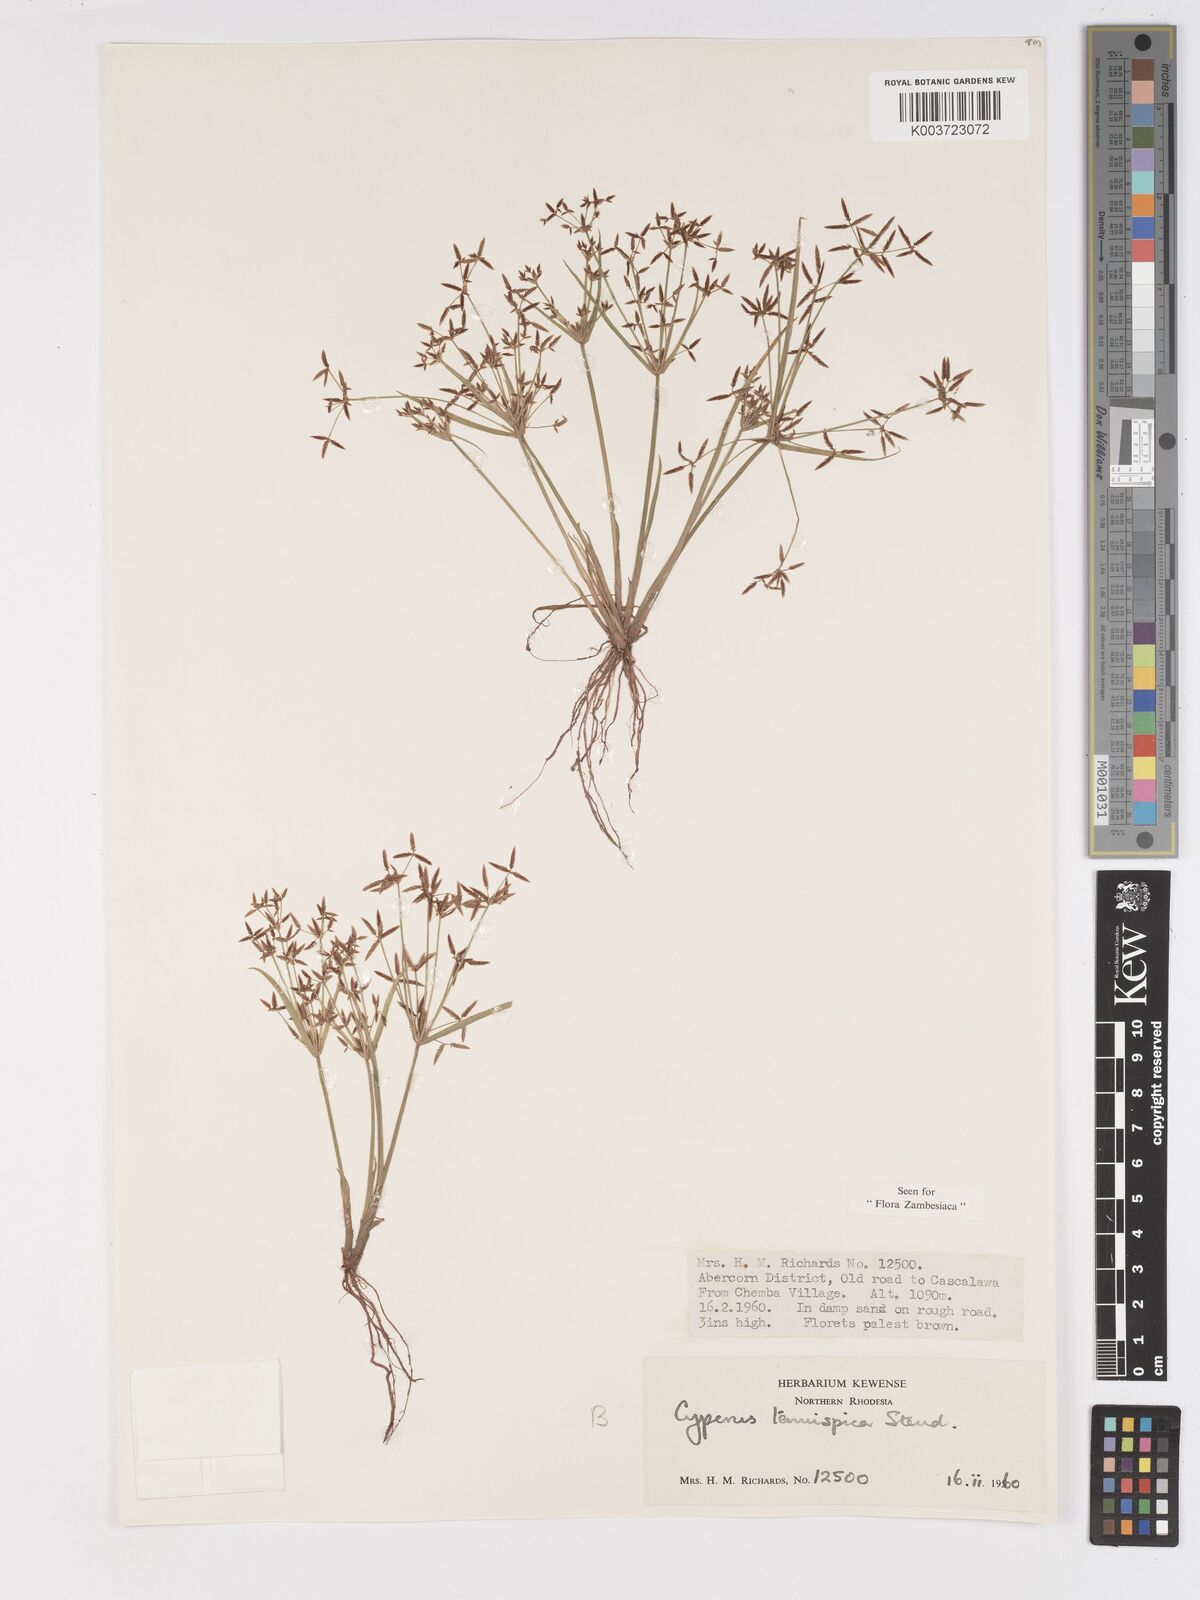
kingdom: Plantae
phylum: Tracheophyta
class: Liliopsida
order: Poales
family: Cyperaceae
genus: Cyperus
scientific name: Cyperus tenuispica
